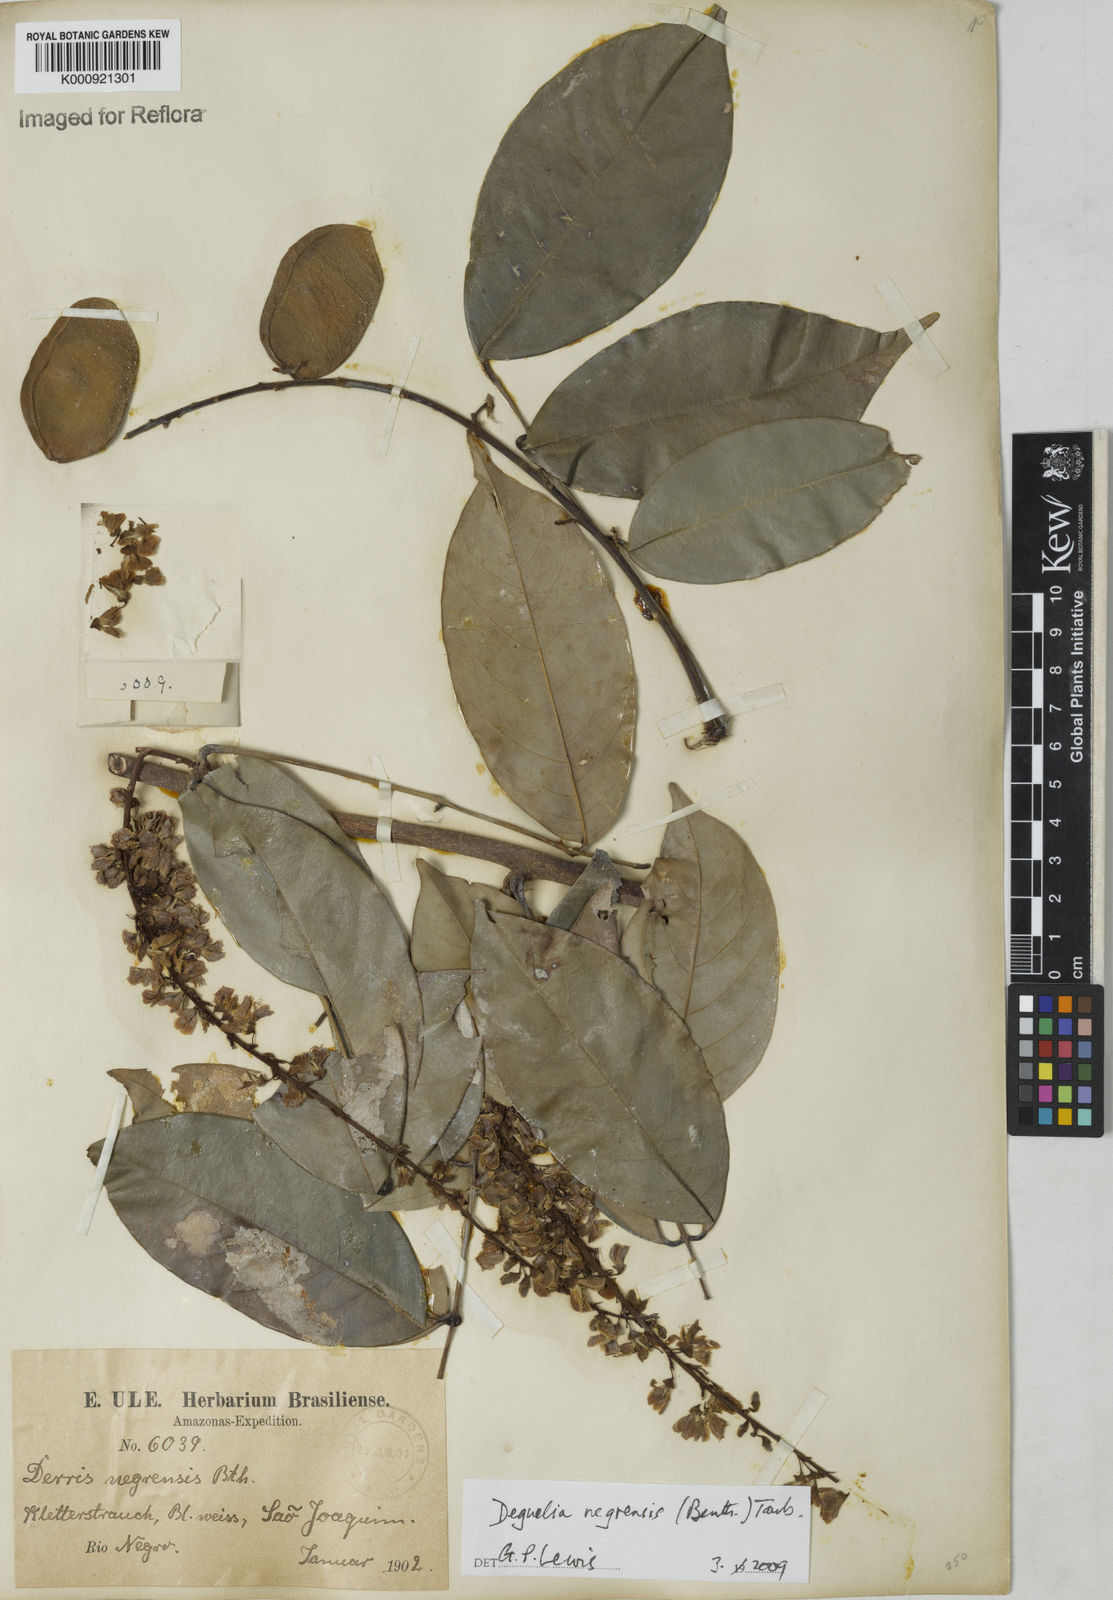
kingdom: Plantae
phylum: Tracheophyta
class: Magnoliopsida
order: Fabales
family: Fabaceae
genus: Deguelia
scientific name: Deguelia negrensis
